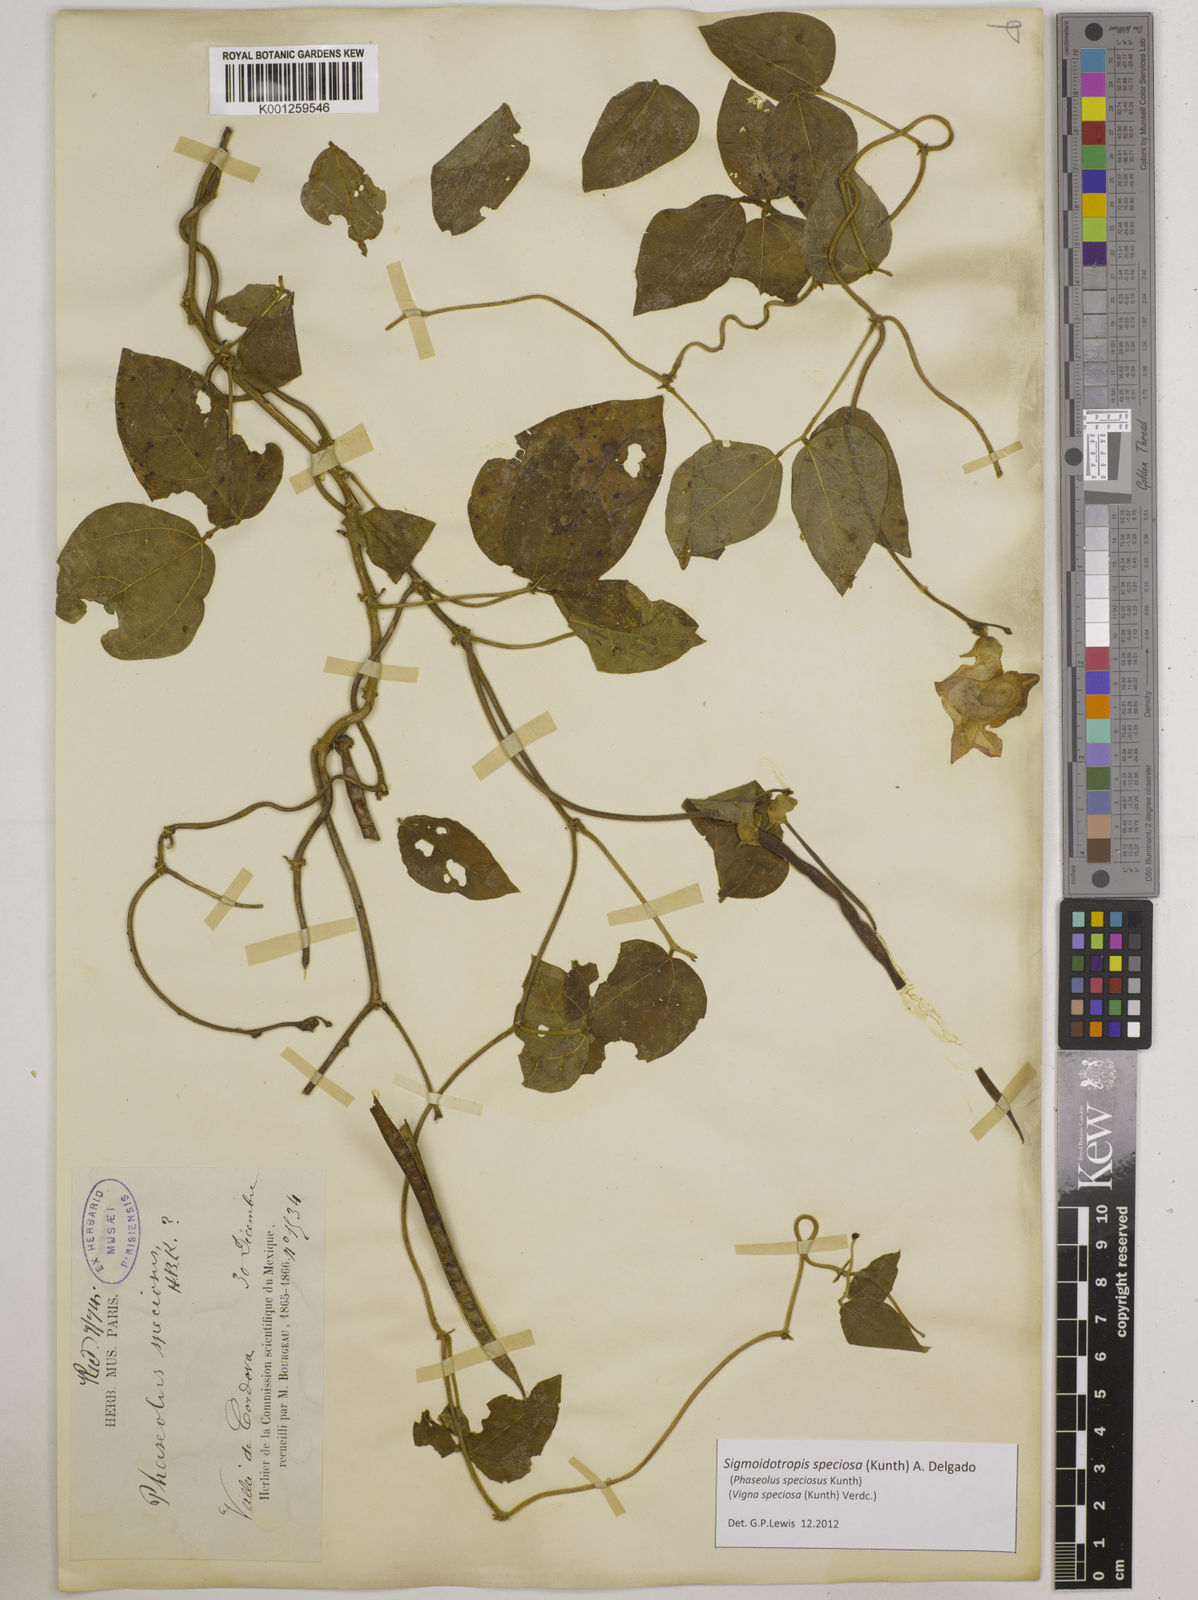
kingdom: Plantae
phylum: Tracheophyta
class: Magnoliopsida
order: Fabales
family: Fabaceae
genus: Sigmoidotropis
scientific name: Sigmoidotropis speciosa
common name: Snail flower
